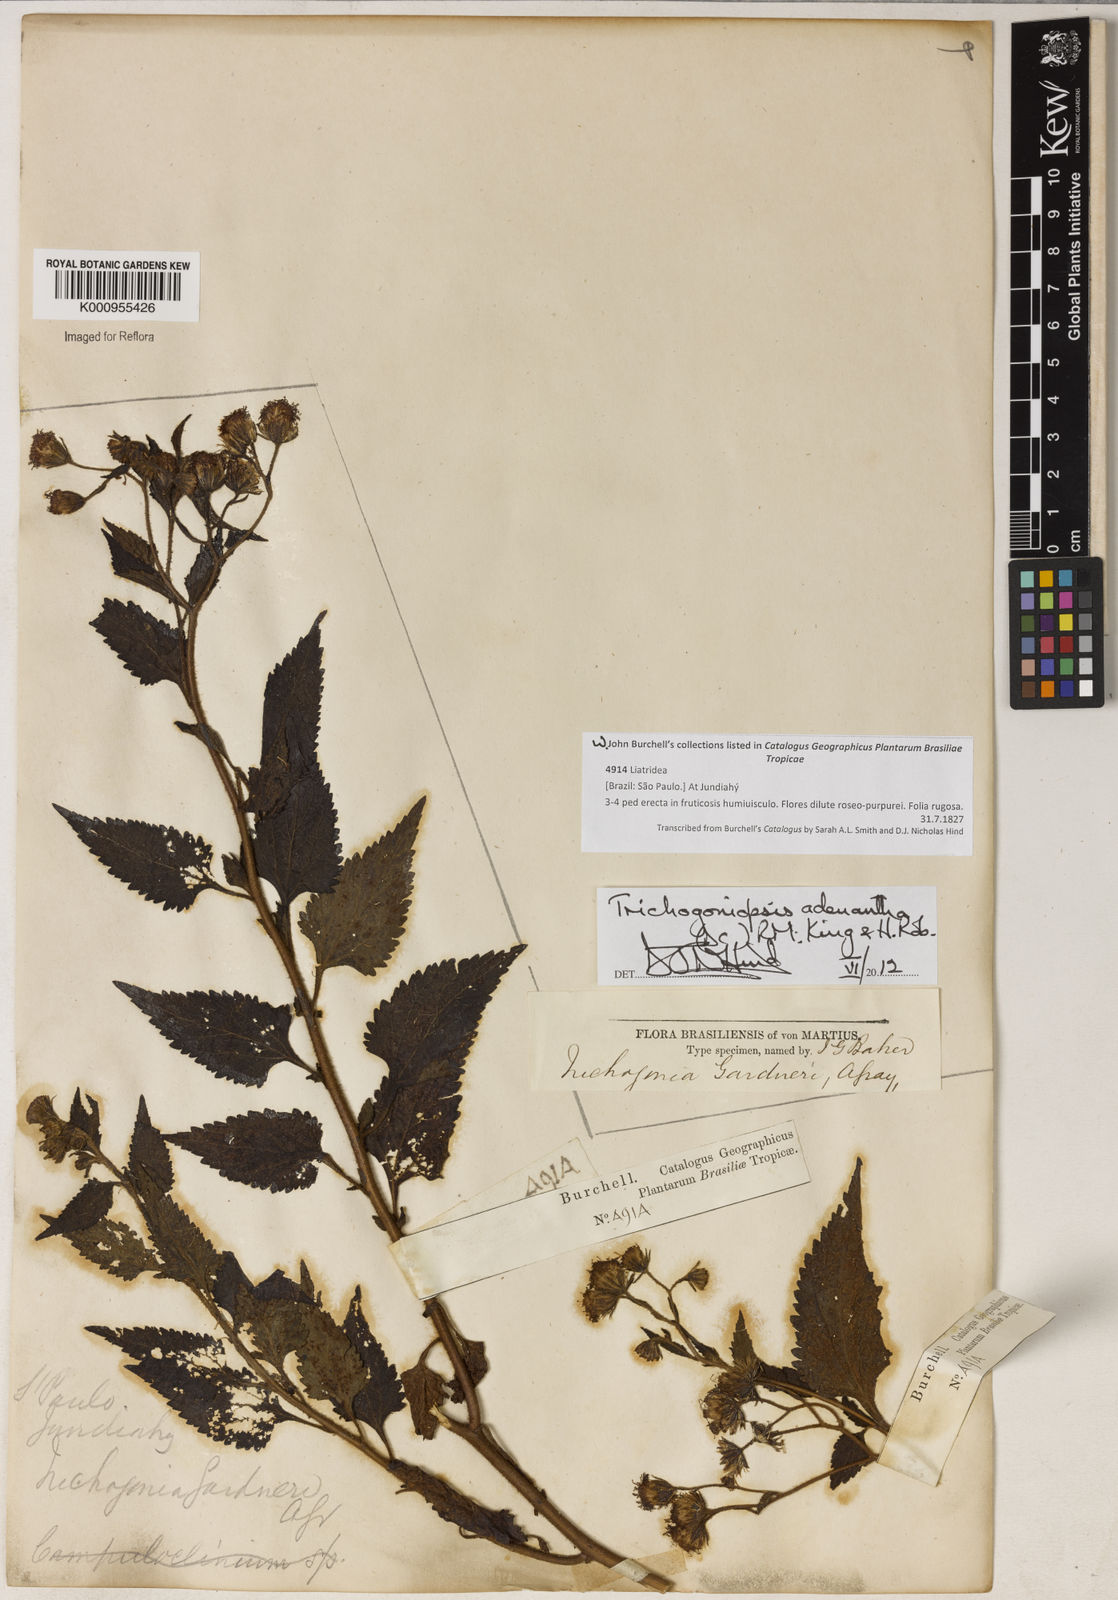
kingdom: Plantae
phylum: Tracheophyta
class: Magnoliopsida
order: Asterales
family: Asteraceae
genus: Trichogoniopsis
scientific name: Trichogoniopsis adenantha
